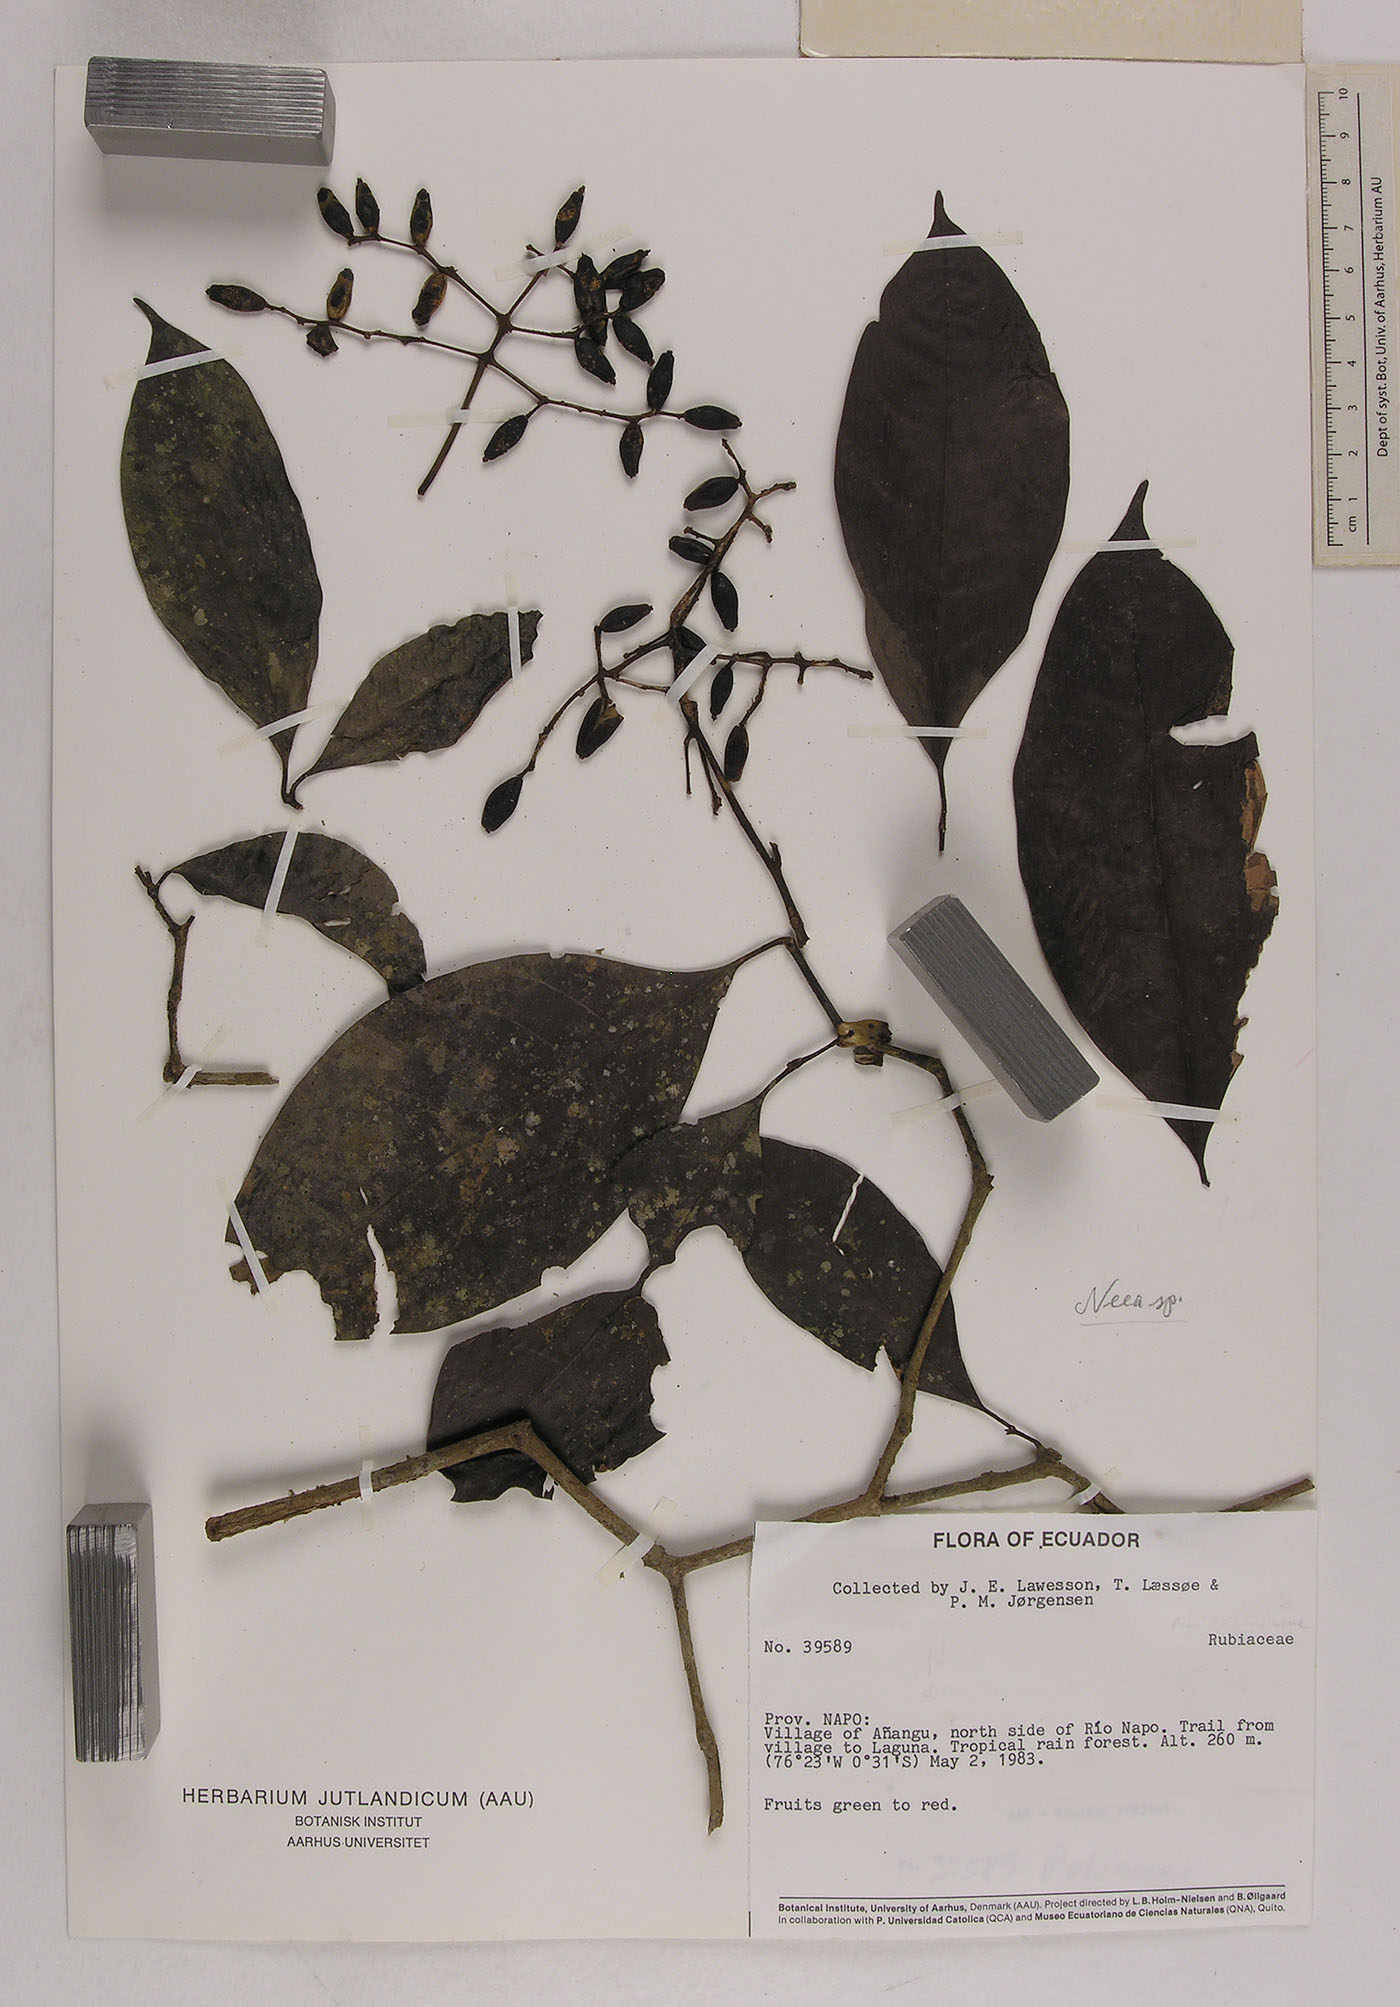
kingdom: Plantae
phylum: Tracheophyta
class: Magnoliopsida
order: Caryophyllales
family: Nyctaginaceae
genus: Neea
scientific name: Neea
